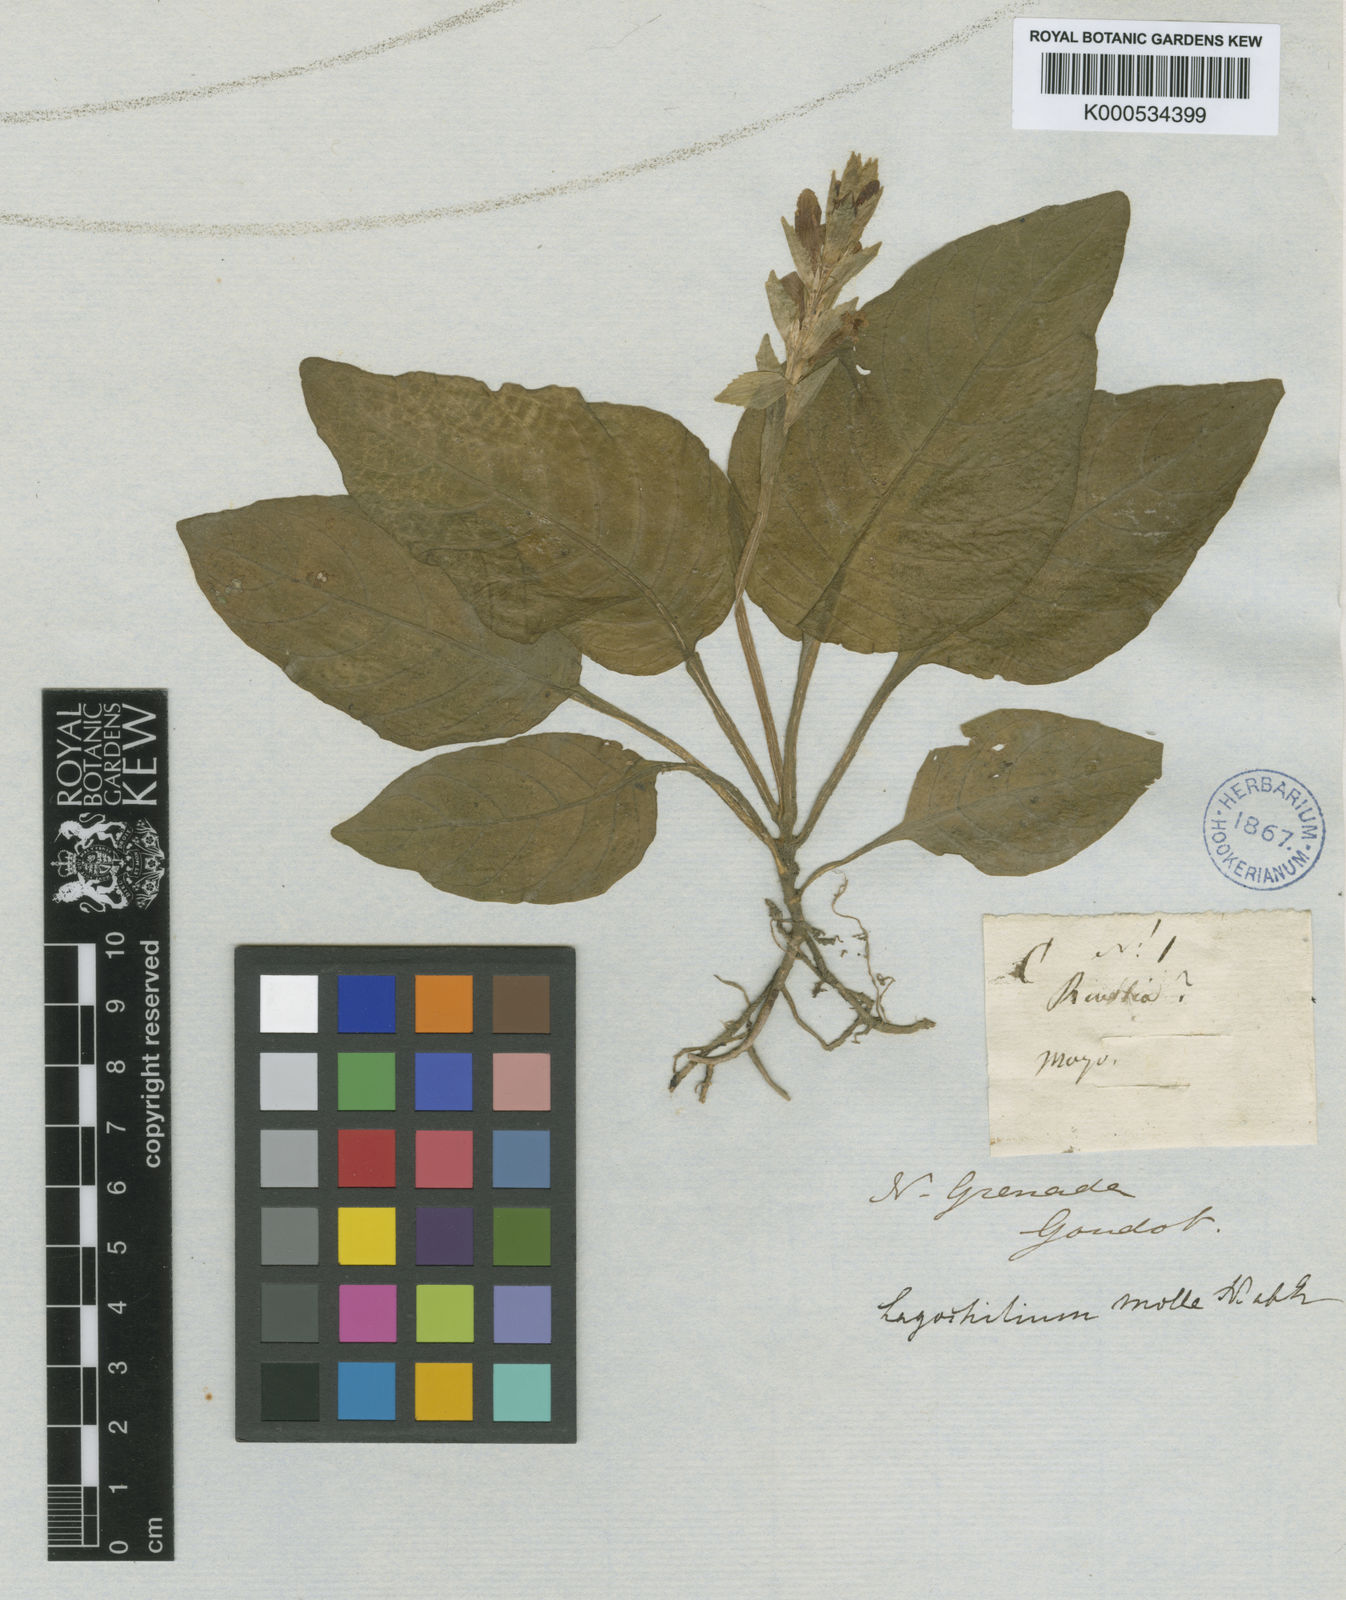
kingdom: Plantae
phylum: Tracheophyta
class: Magnoliopsida
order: Lamiales
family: Acanthaceae
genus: Stenandrium
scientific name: Stenandrium
